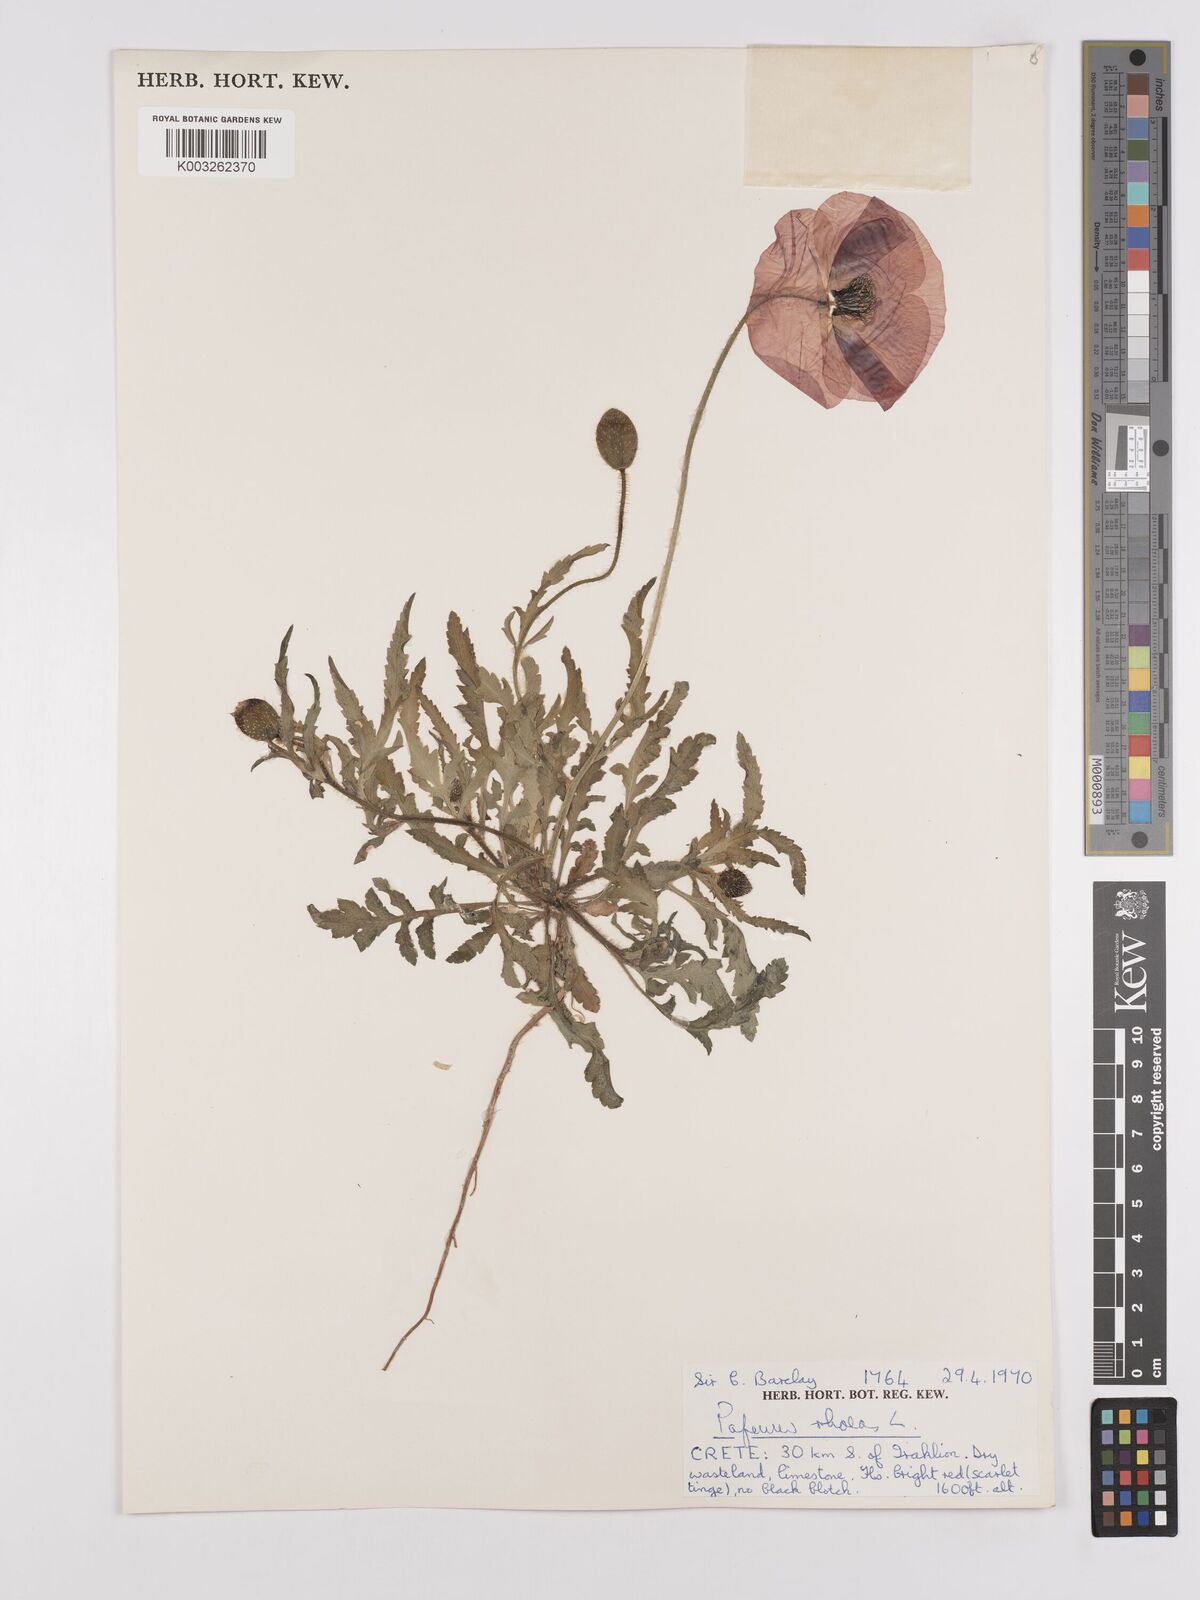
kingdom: Plantae
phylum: Tracheophyta
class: Magnoliopsida
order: Ranunculales
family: Papaveraceae
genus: Papaver
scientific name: Papaver rhoeas
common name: Corn poppy
